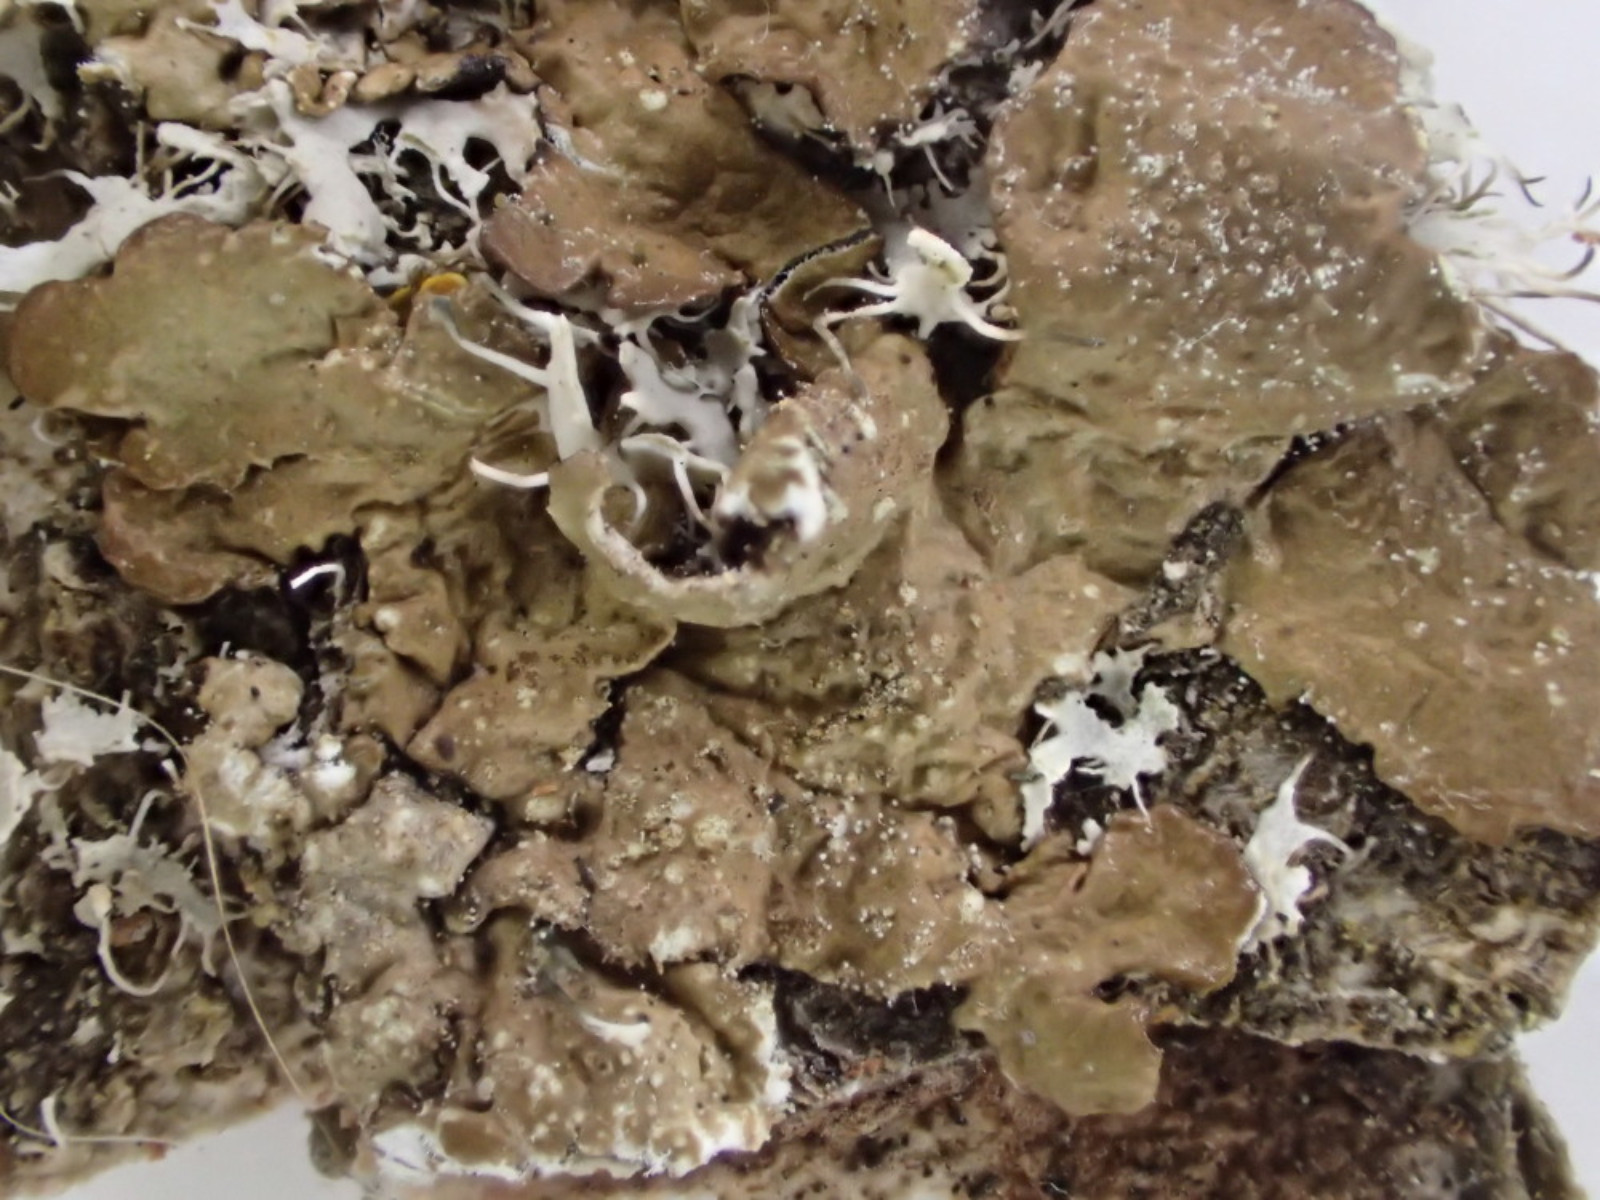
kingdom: Fungi
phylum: Ascomycota
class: Lecanoromycetes
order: Lecanorales
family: Parmeliaceae
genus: Melanelixia
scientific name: Melanelixia subaurifera
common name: guldpudret skållav
